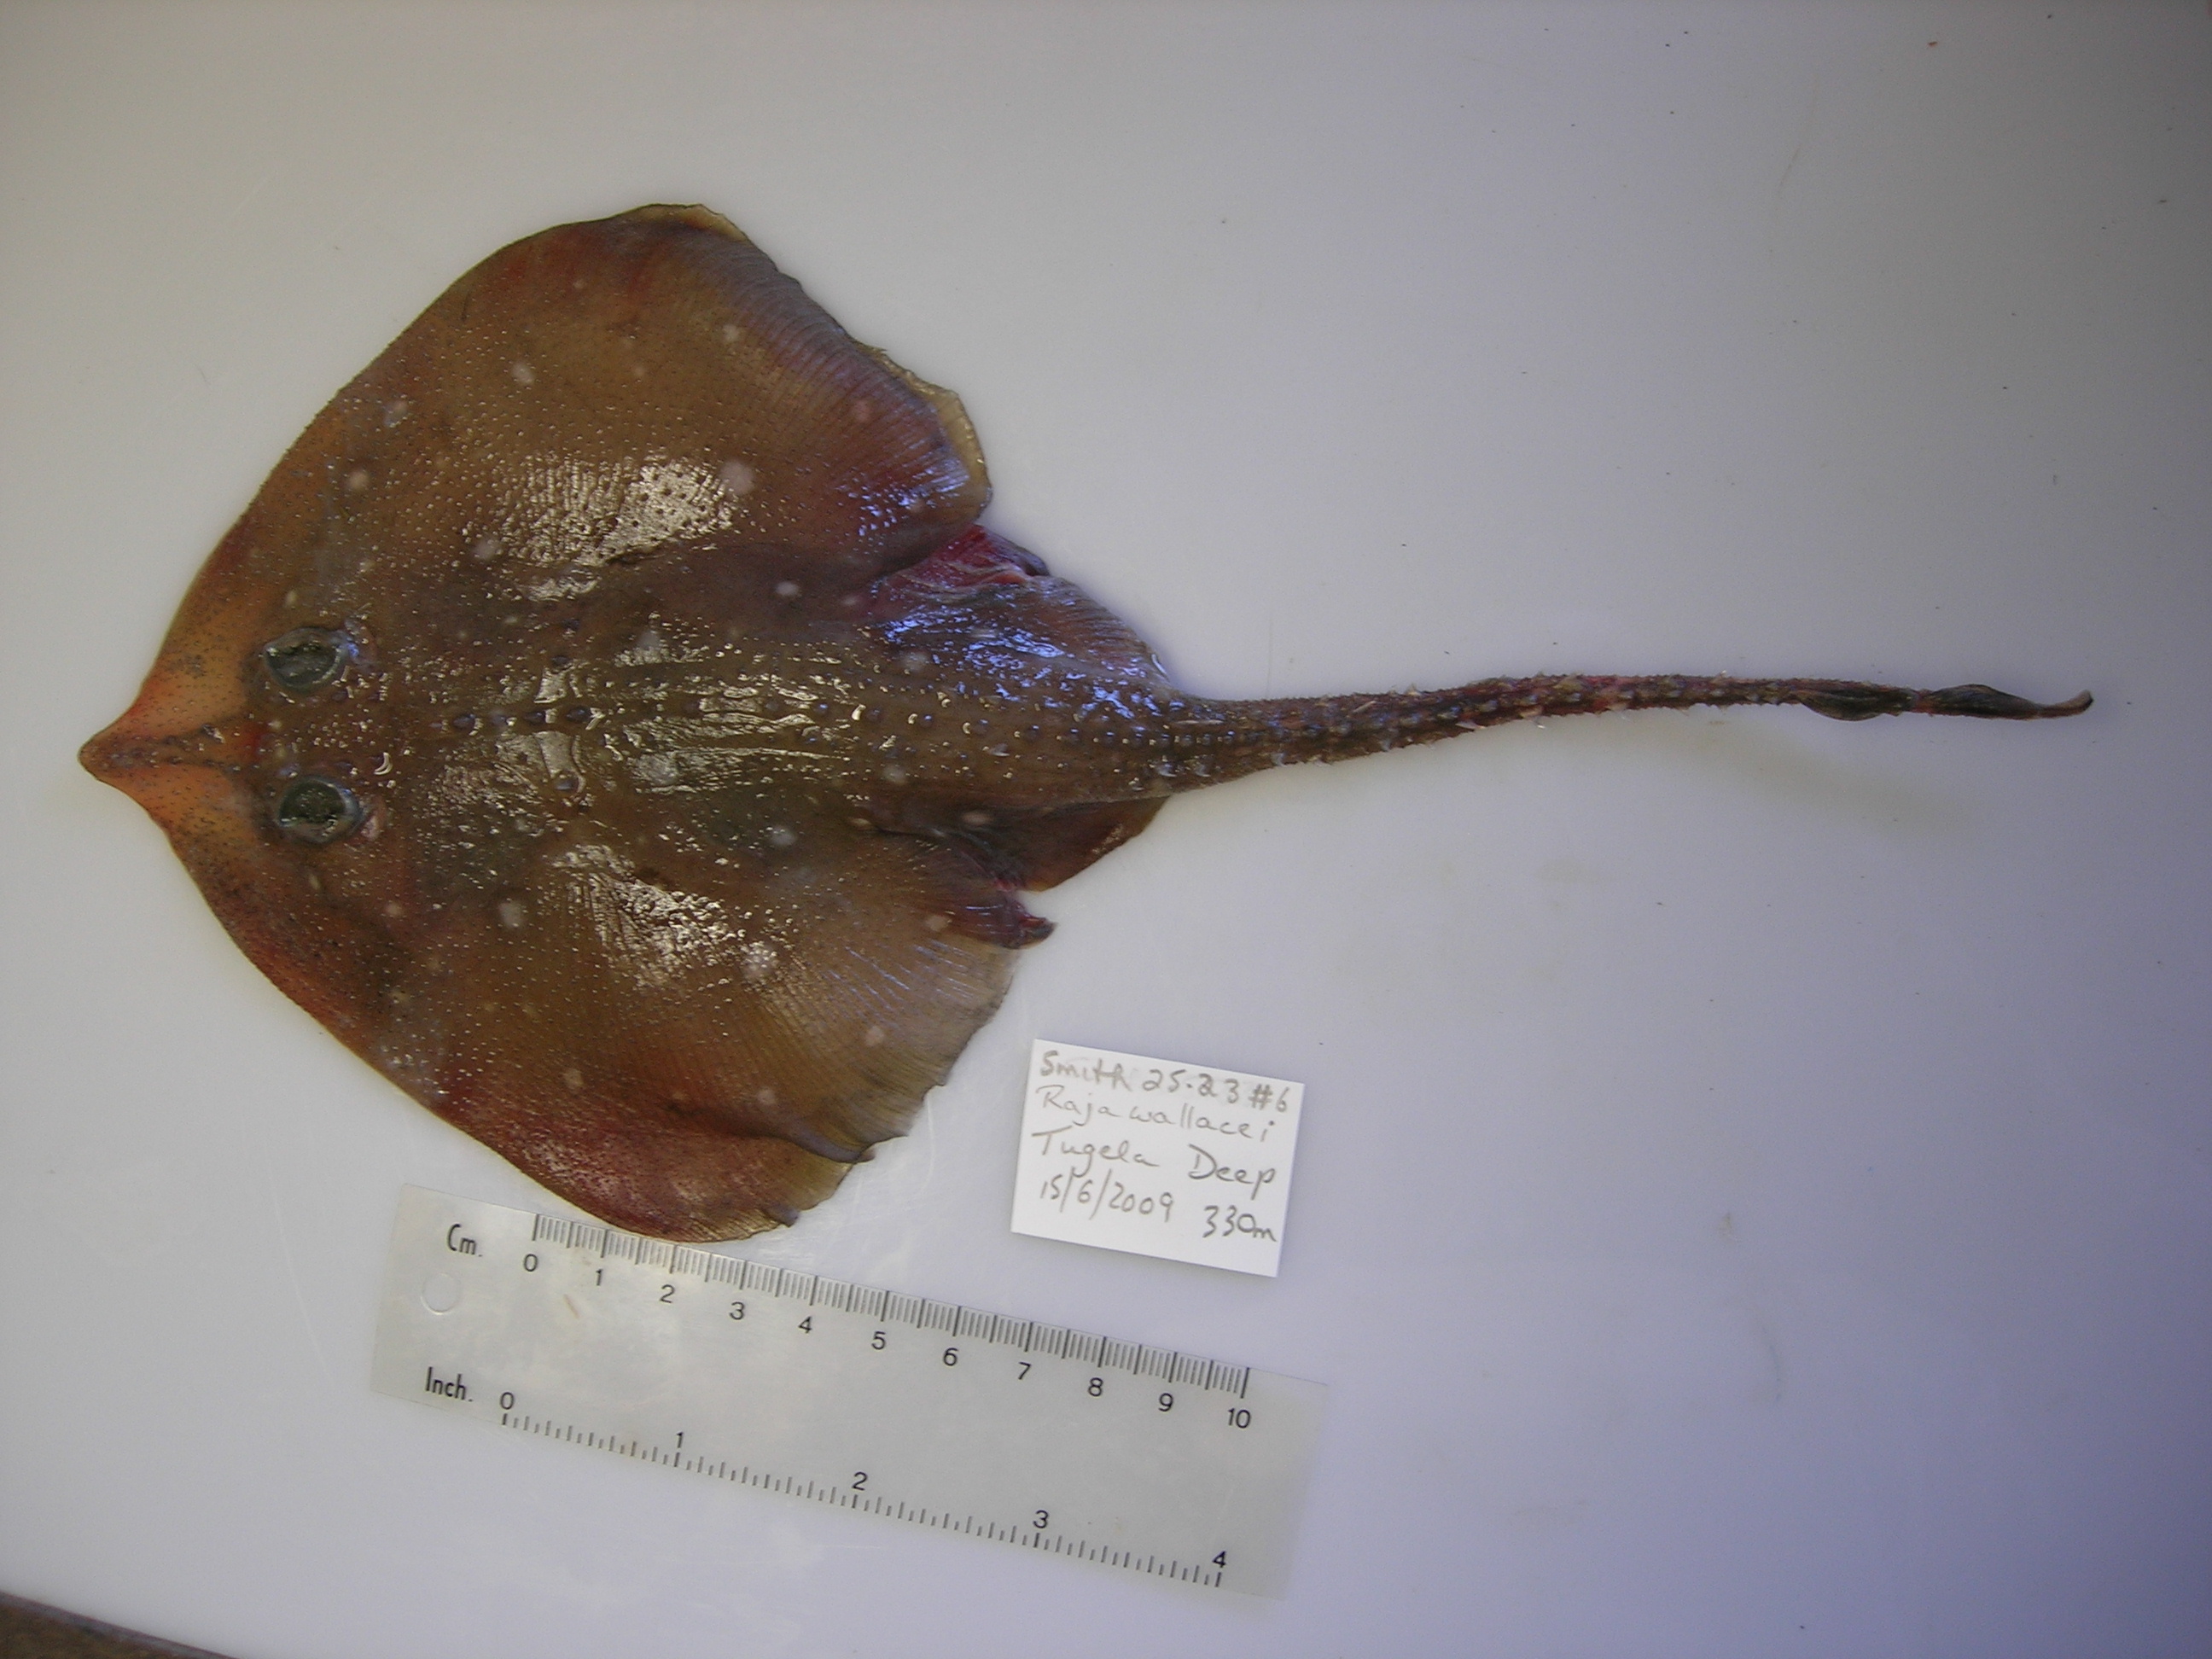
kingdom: Animalia
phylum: Chordata
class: Elasmobranchii
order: Rajiformes
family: Rajidae
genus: Leucoraja
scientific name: Leucoraja wallacei
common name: Blancmange skate
